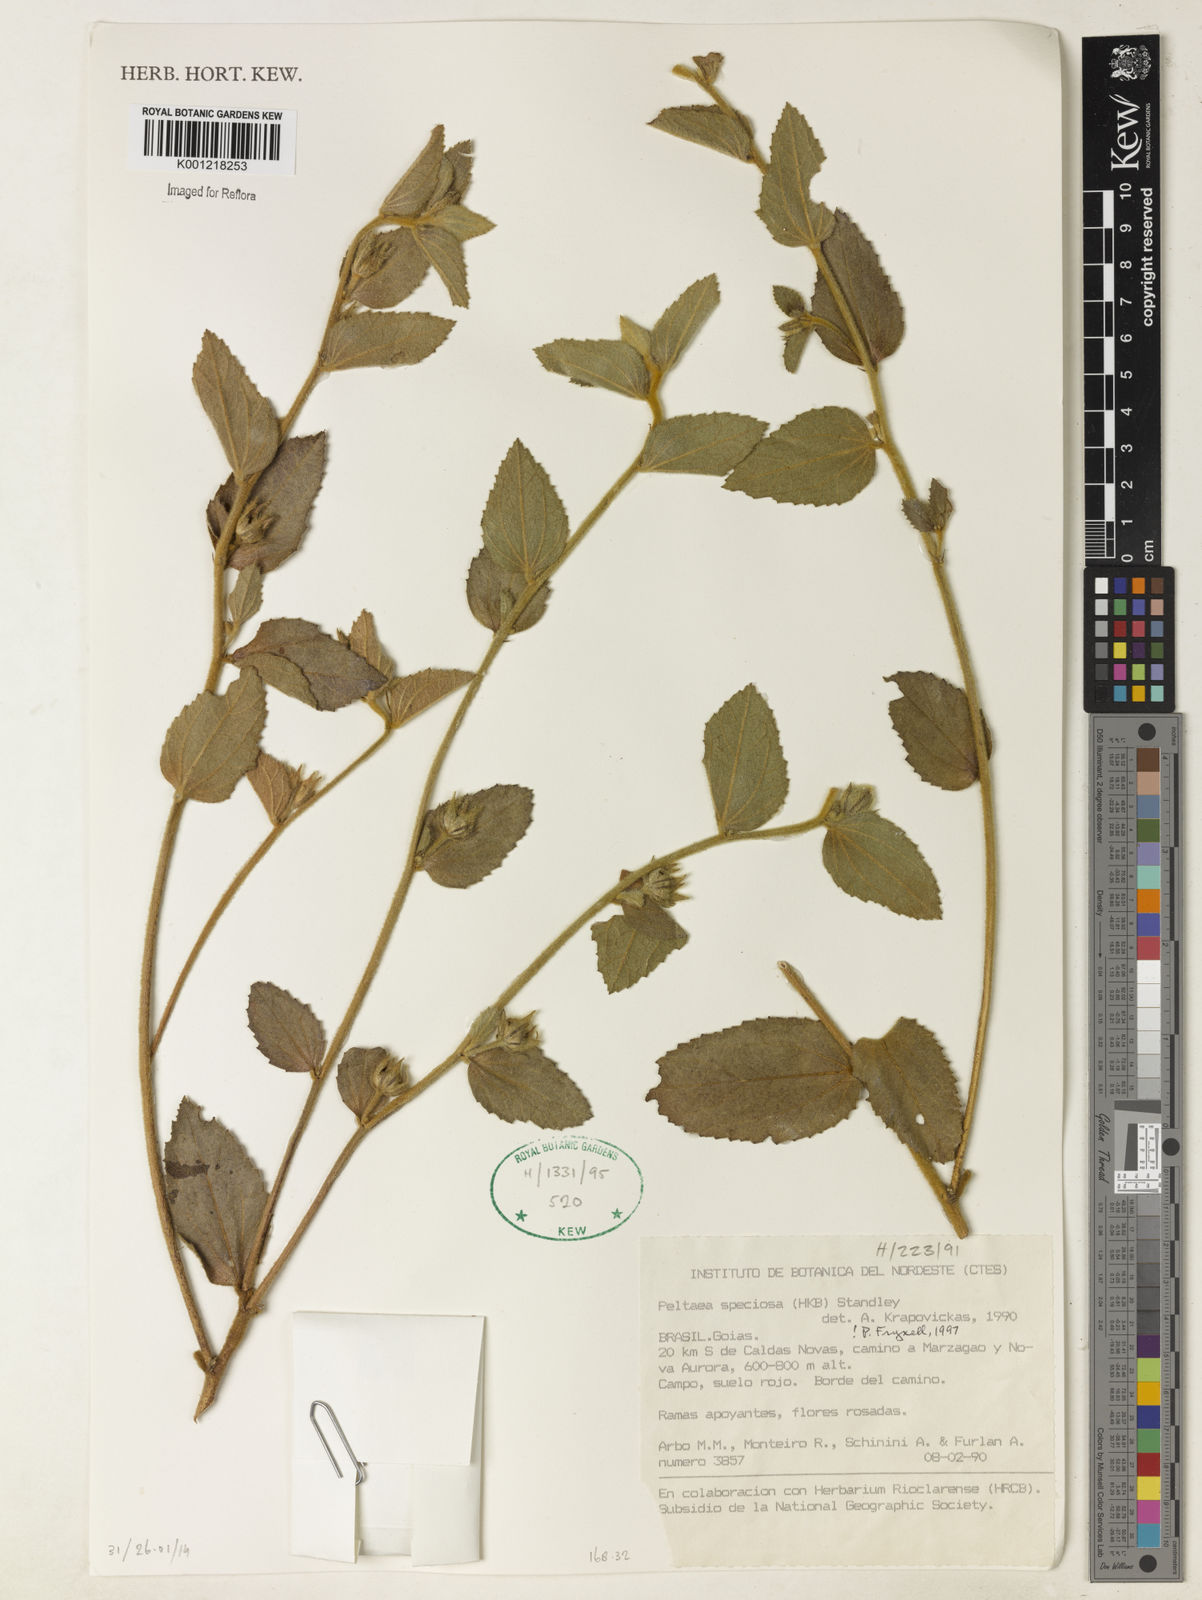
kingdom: Plantae
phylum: Tracheophyta
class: Magnoliopsida
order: Malvales
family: Malvaceae
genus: Peltaea
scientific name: Peltaea speciosa
